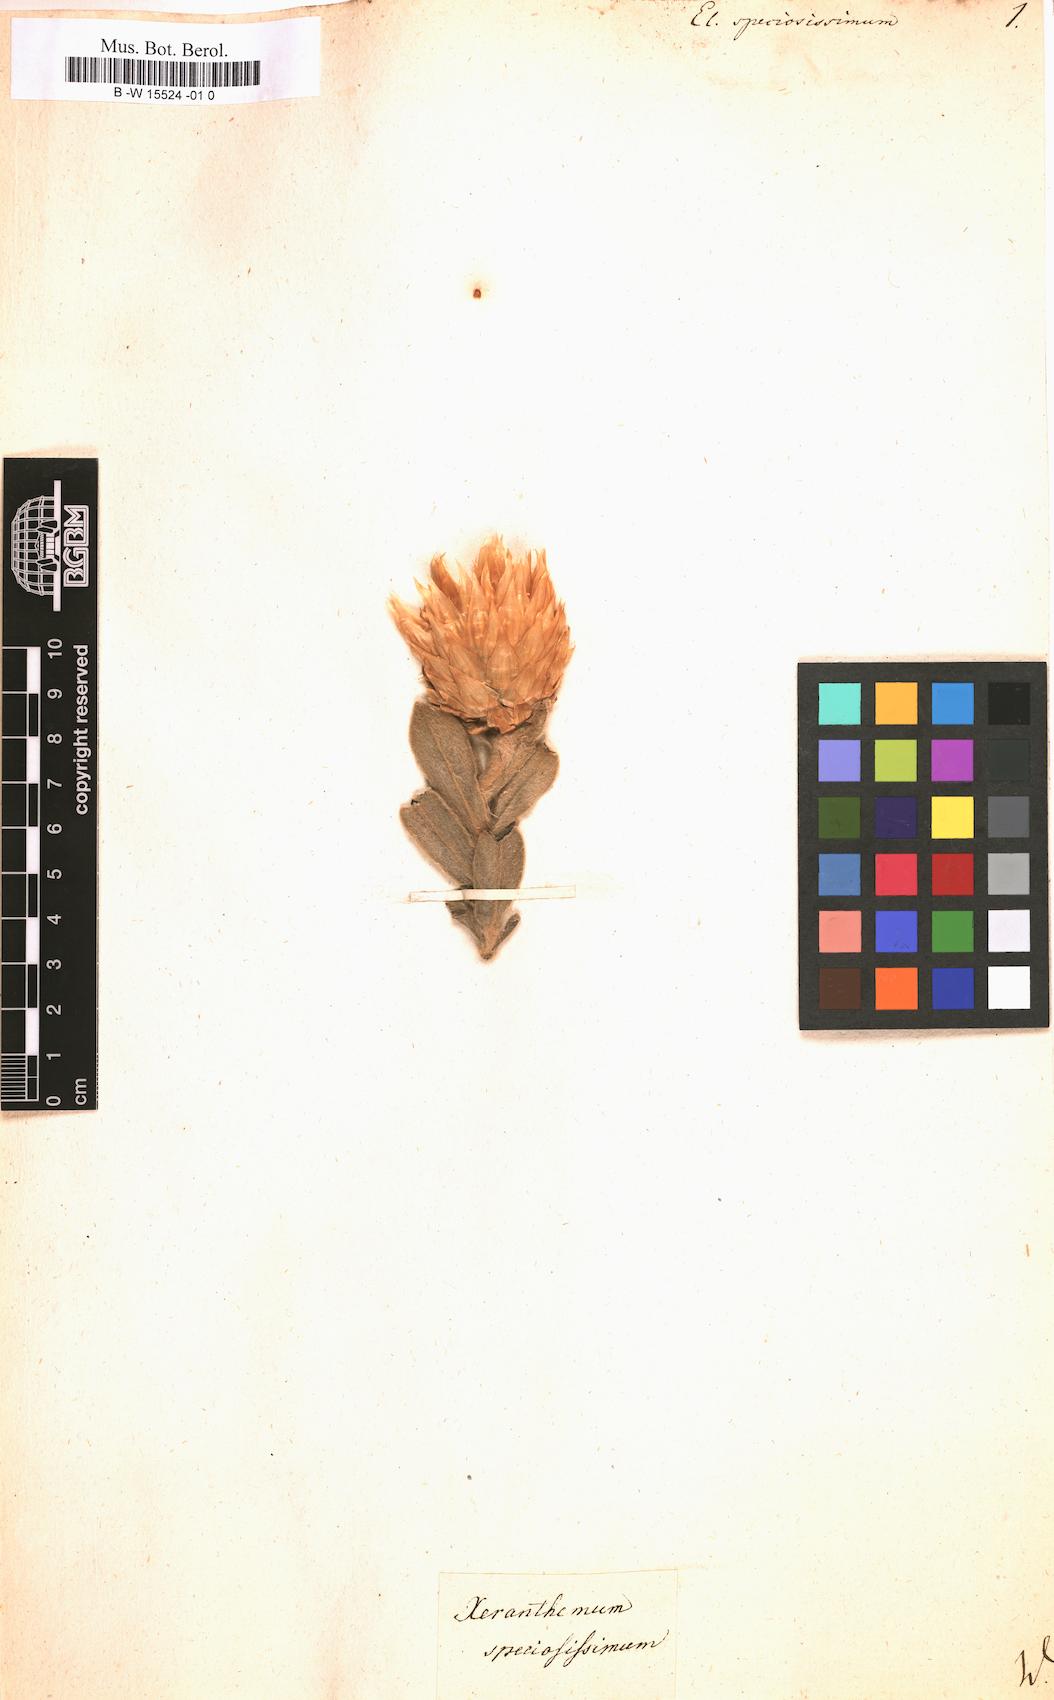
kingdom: Plantae
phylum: Tracheophyta
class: Magnoliopsida
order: Asterales
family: Asteraceae
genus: Helichrysum
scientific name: Helichrysum
